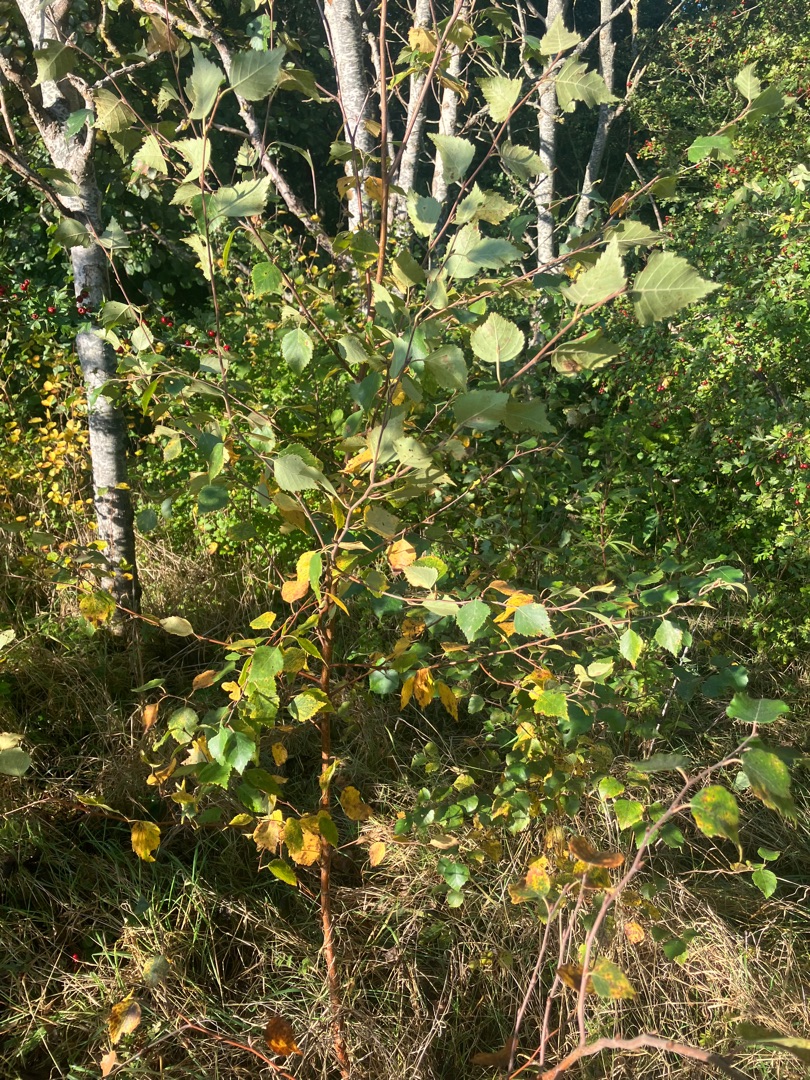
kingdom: Plantae
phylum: Tracheophyta
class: Magnoliopsida
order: Fagales
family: Betulaceae
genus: Betula
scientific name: Betula pubescens
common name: Dun-birk
